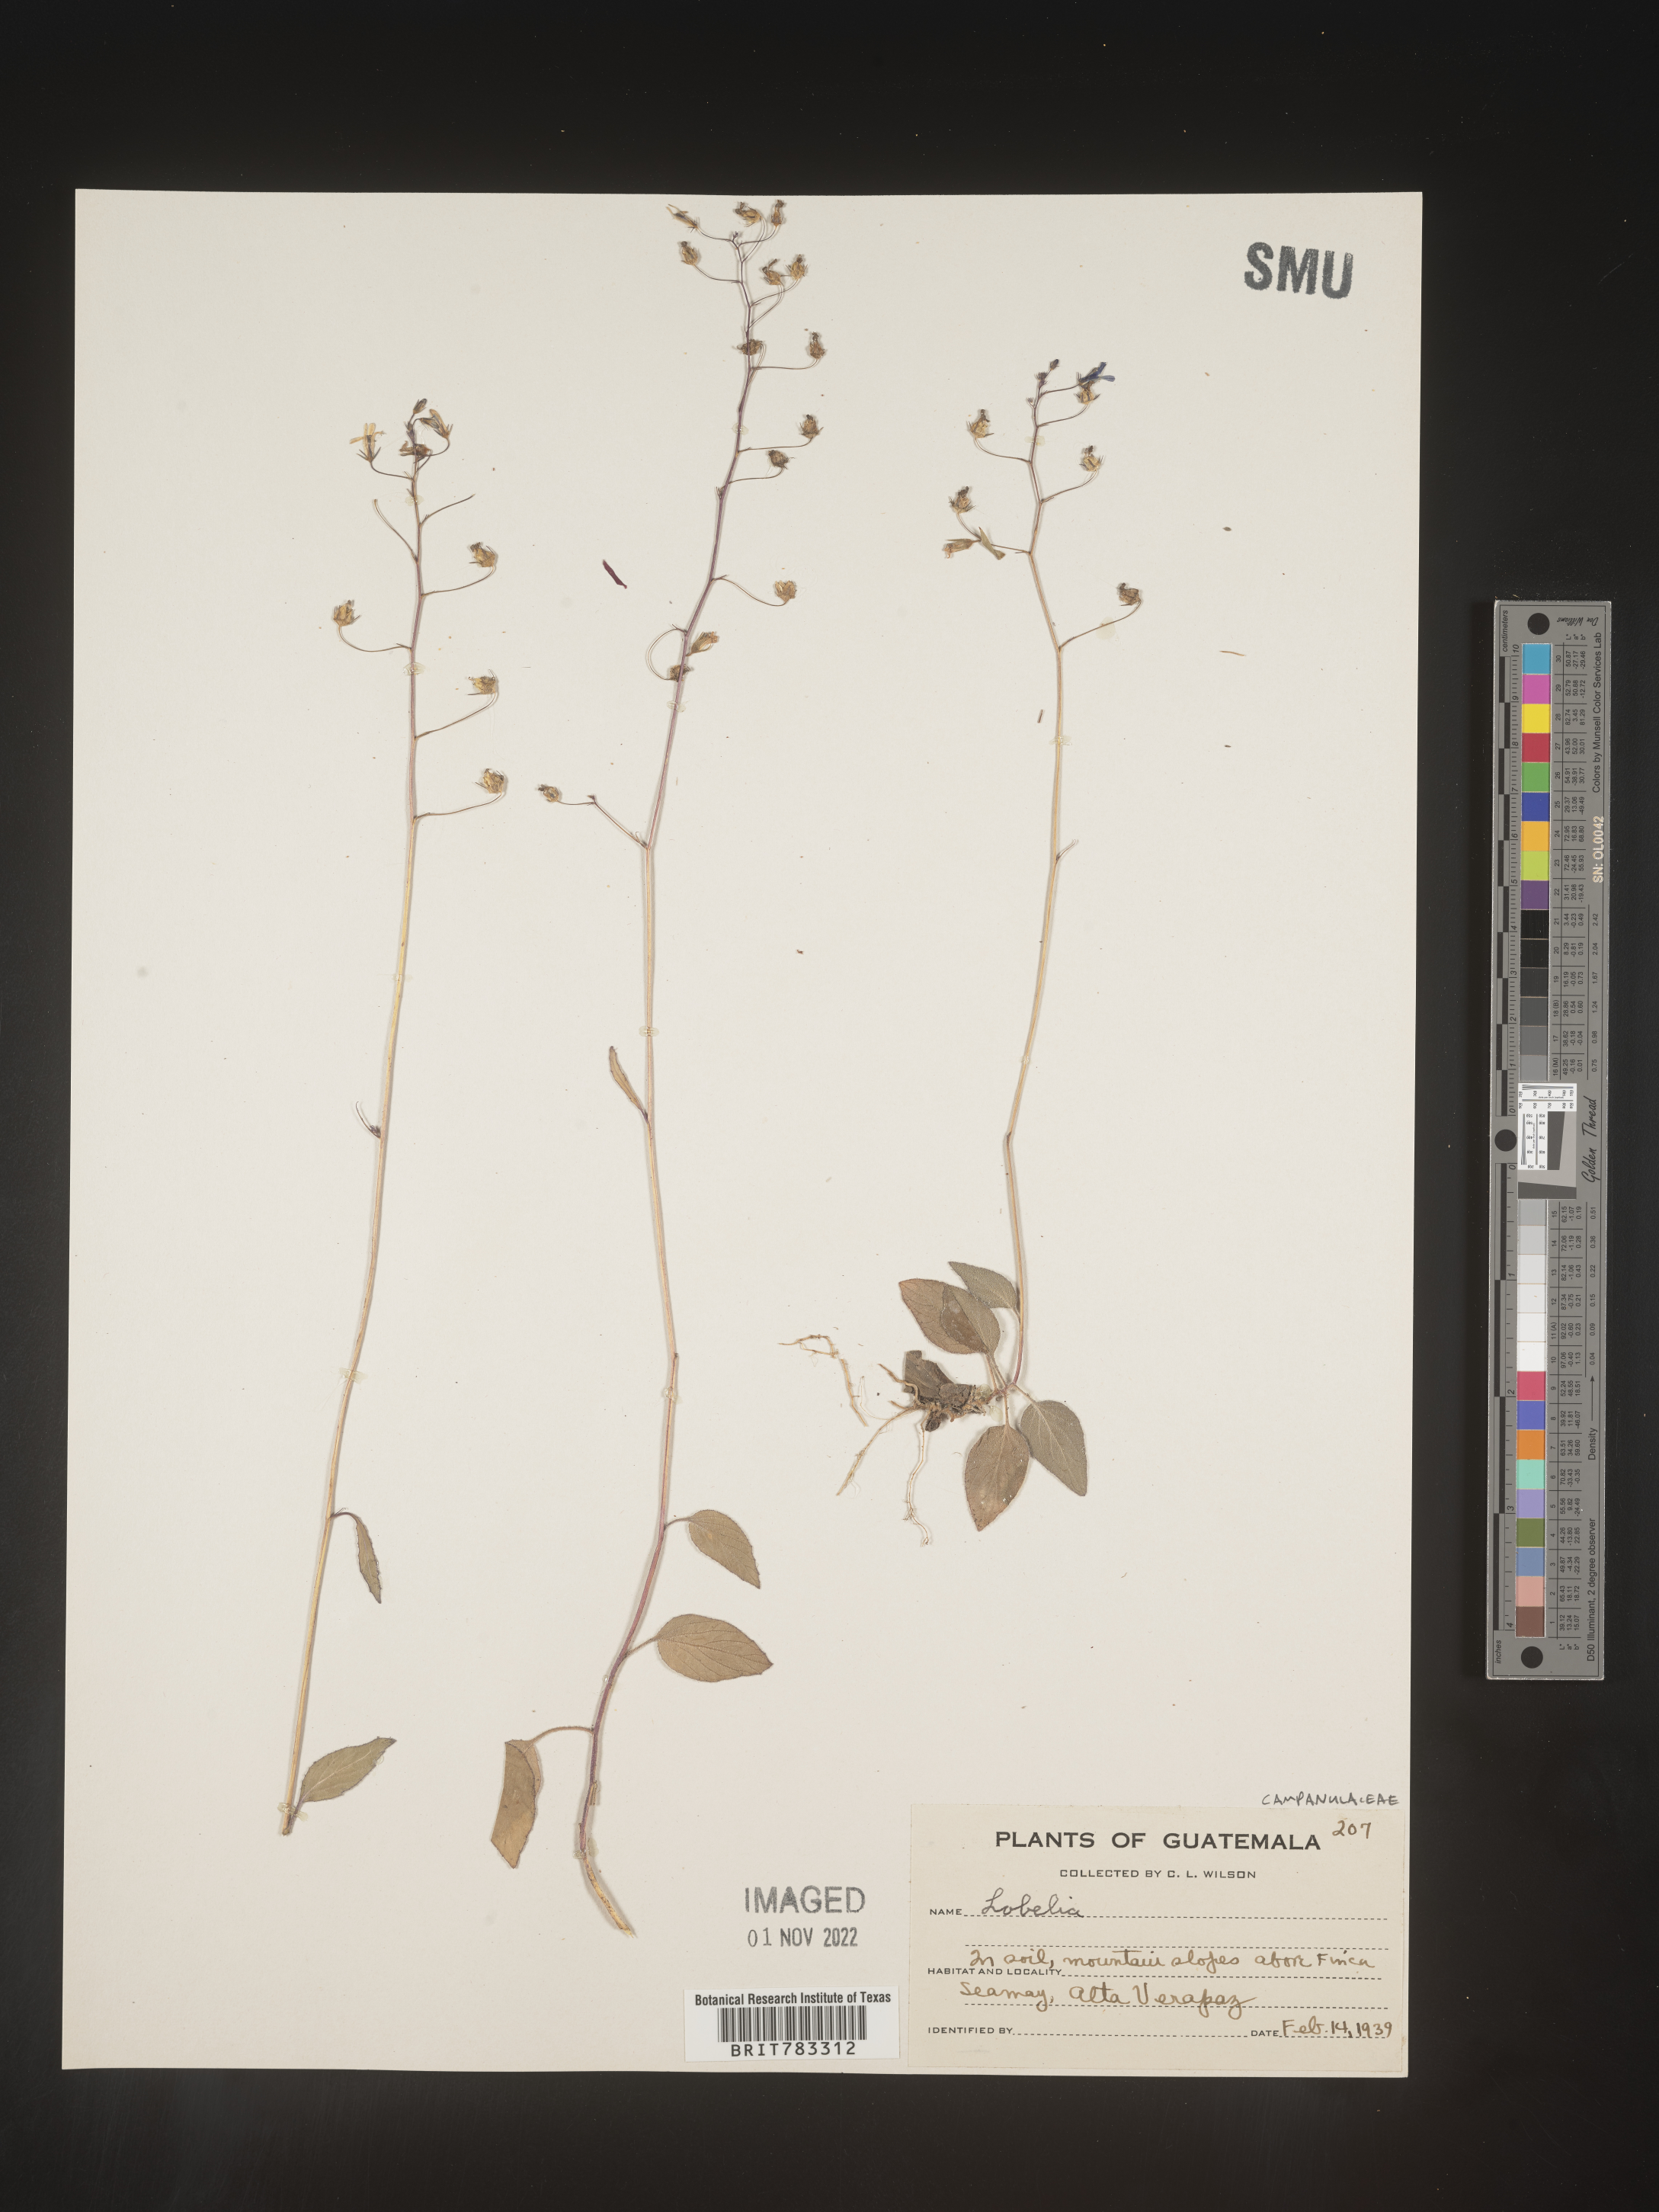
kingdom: Plantae
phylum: Tracheophyta
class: Magnoliopsida
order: Asterales
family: Campanulaceae
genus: Lobelia
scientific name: Lobelia
